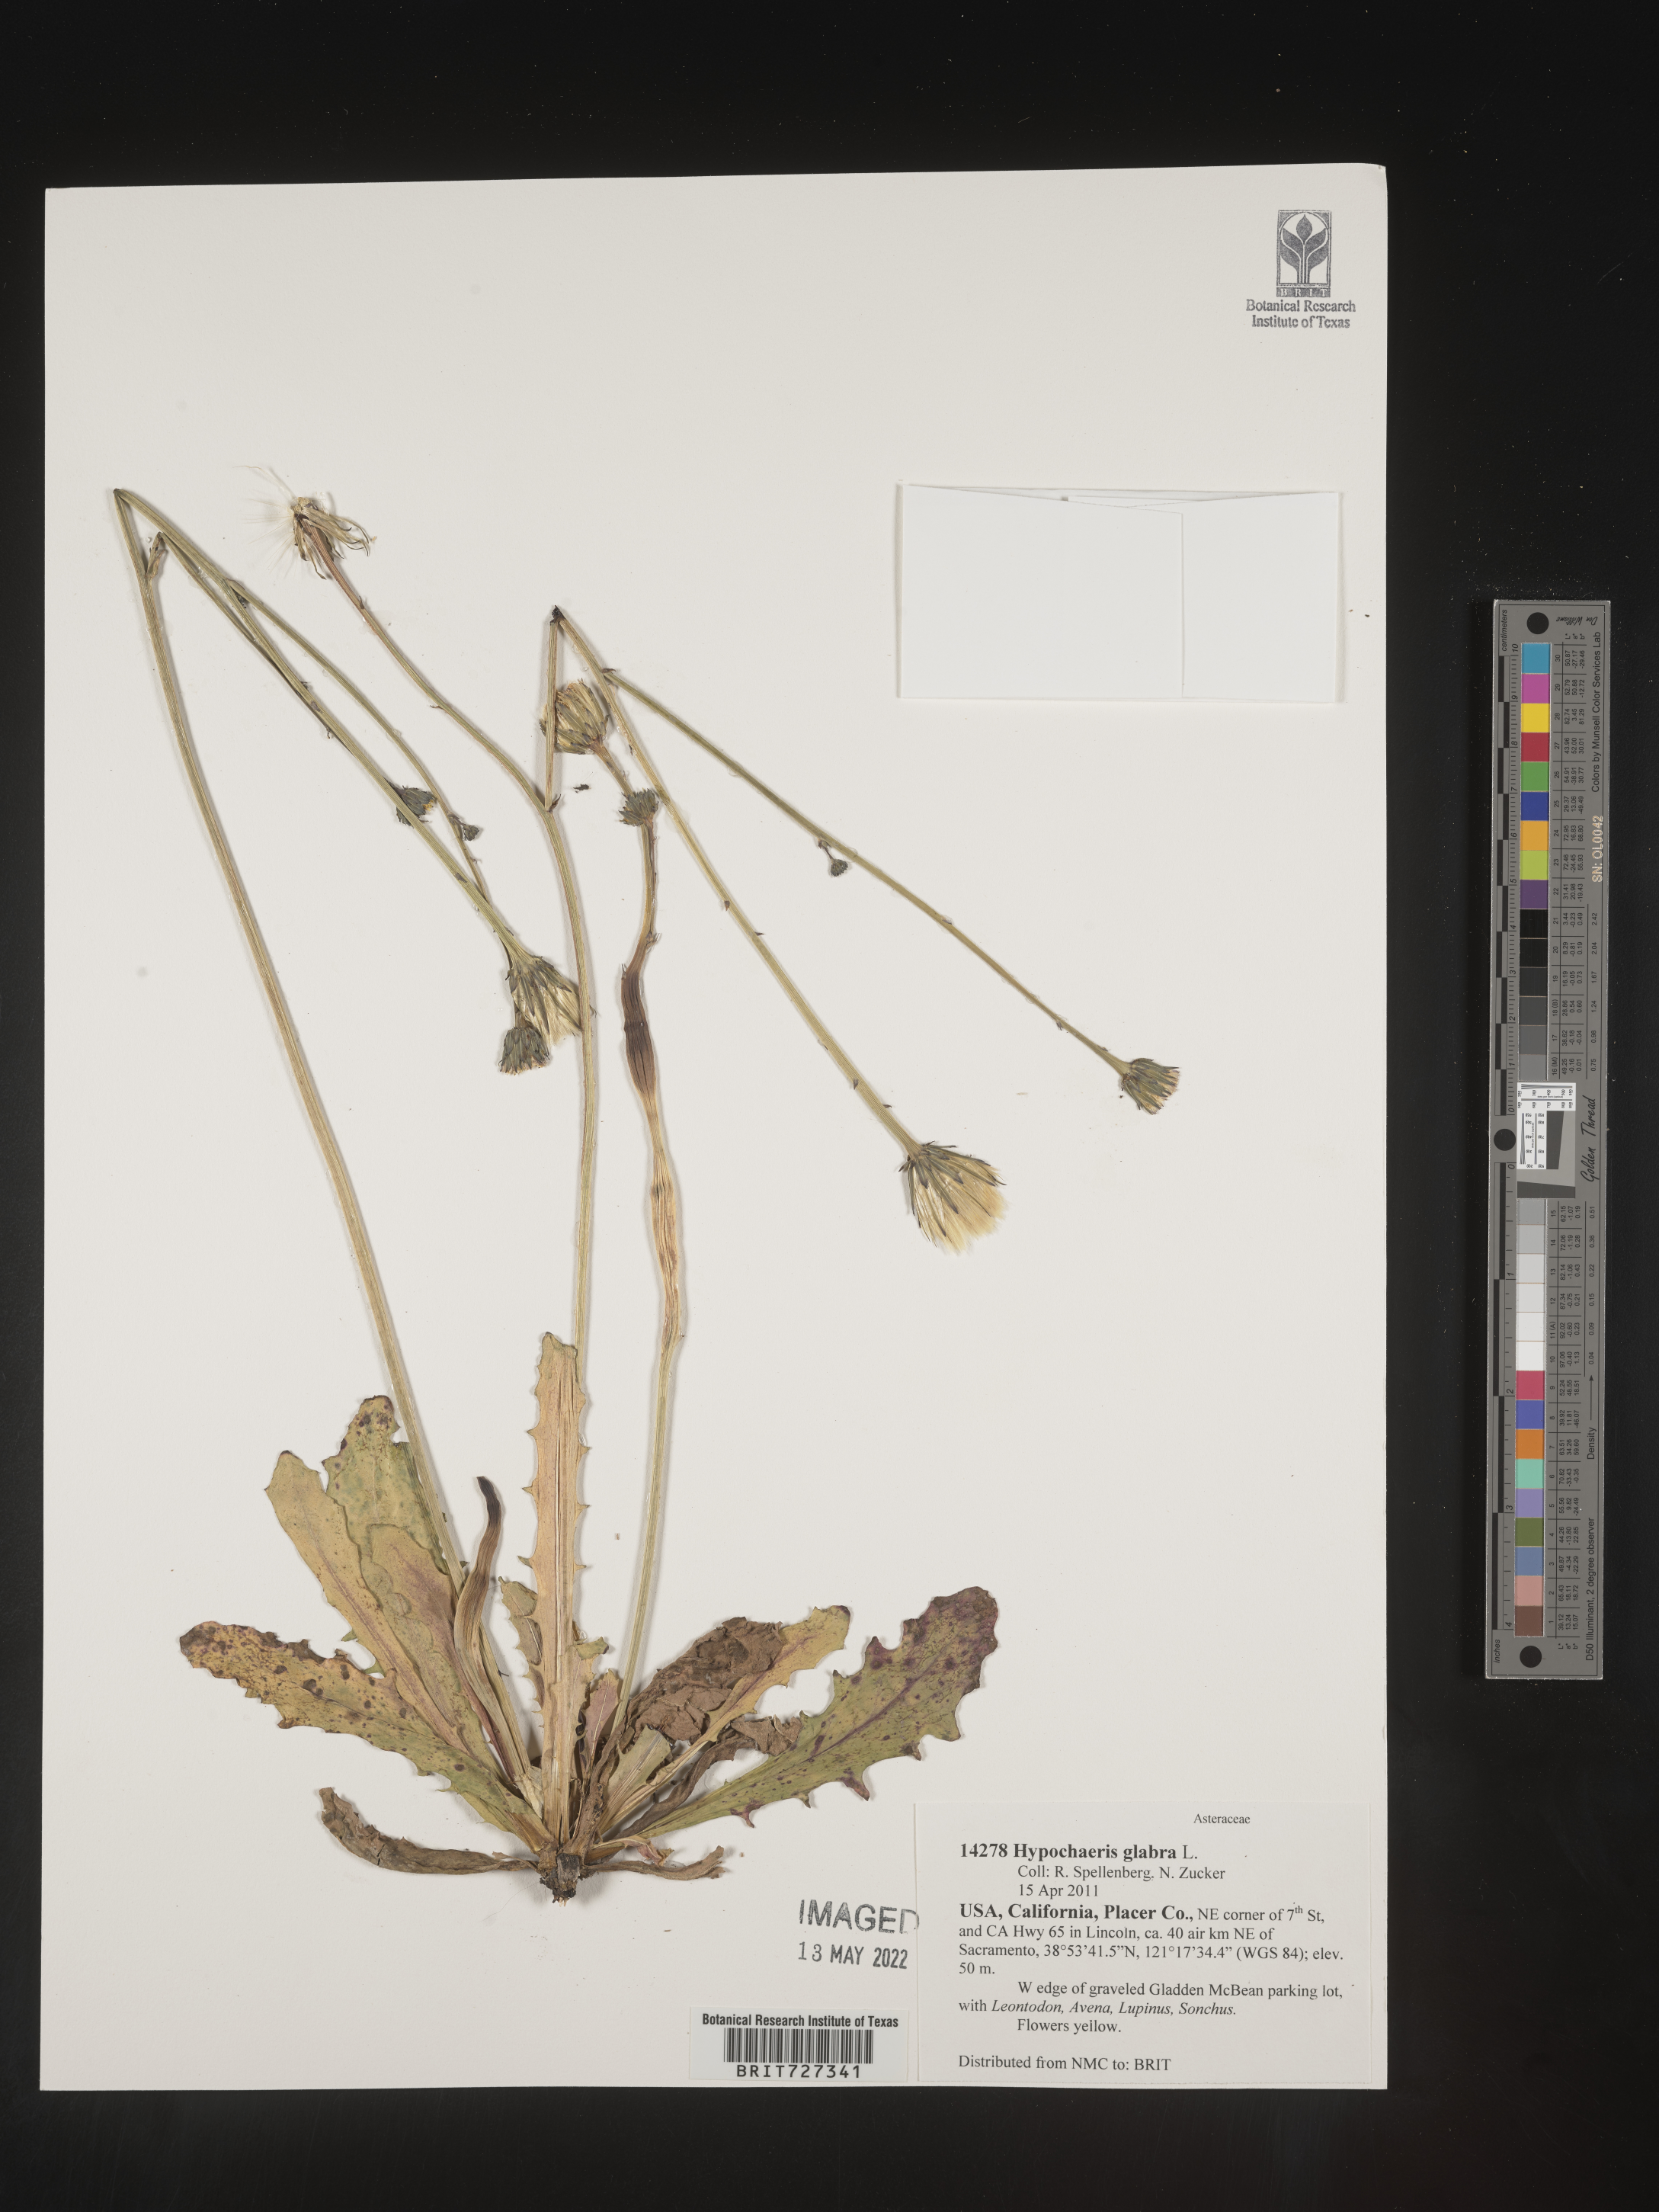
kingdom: Plantae
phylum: Tracheophyta
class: Magnoliopsida
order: Asterales
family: Asteraceae
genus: Hypochaeris
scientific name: Hypochaeris glabra
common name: Smooth catsear
